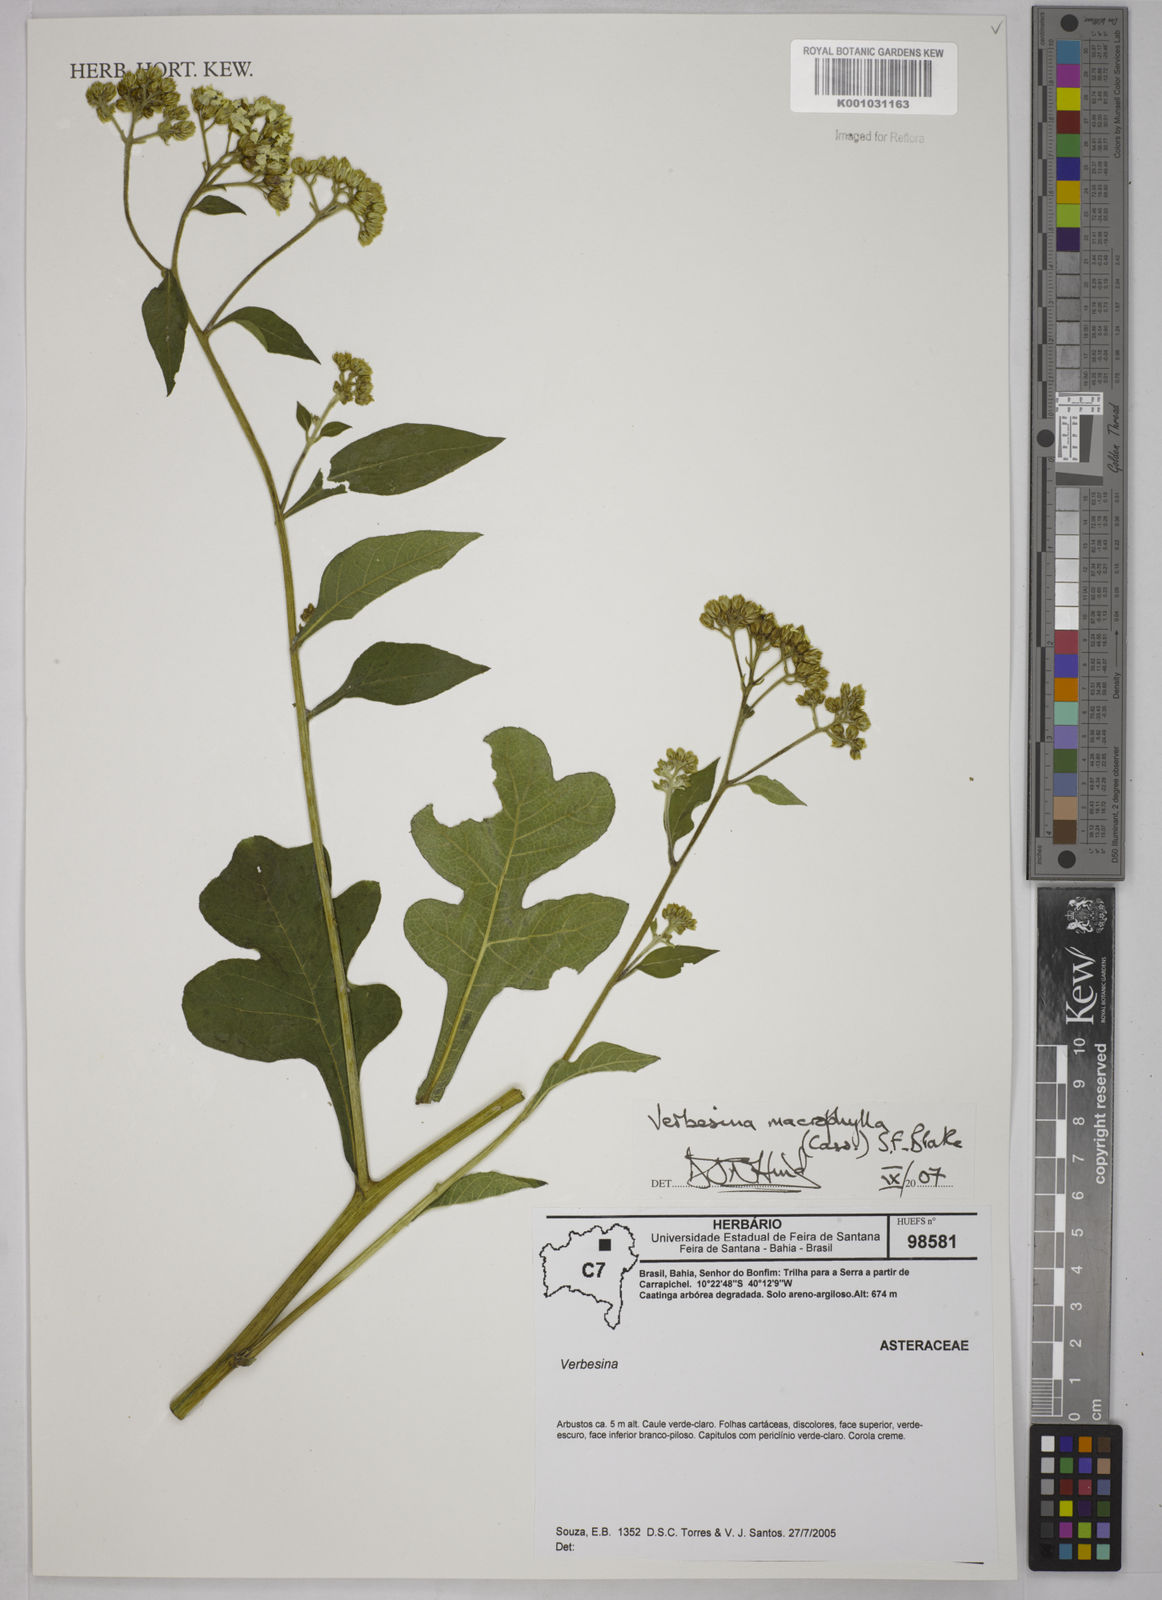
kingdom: Plantae
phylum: Tracheophyta
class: Magnoliopsida
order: Asterales
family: Asteraceae
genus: Verbesina
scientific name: Verbesina macrophylla
